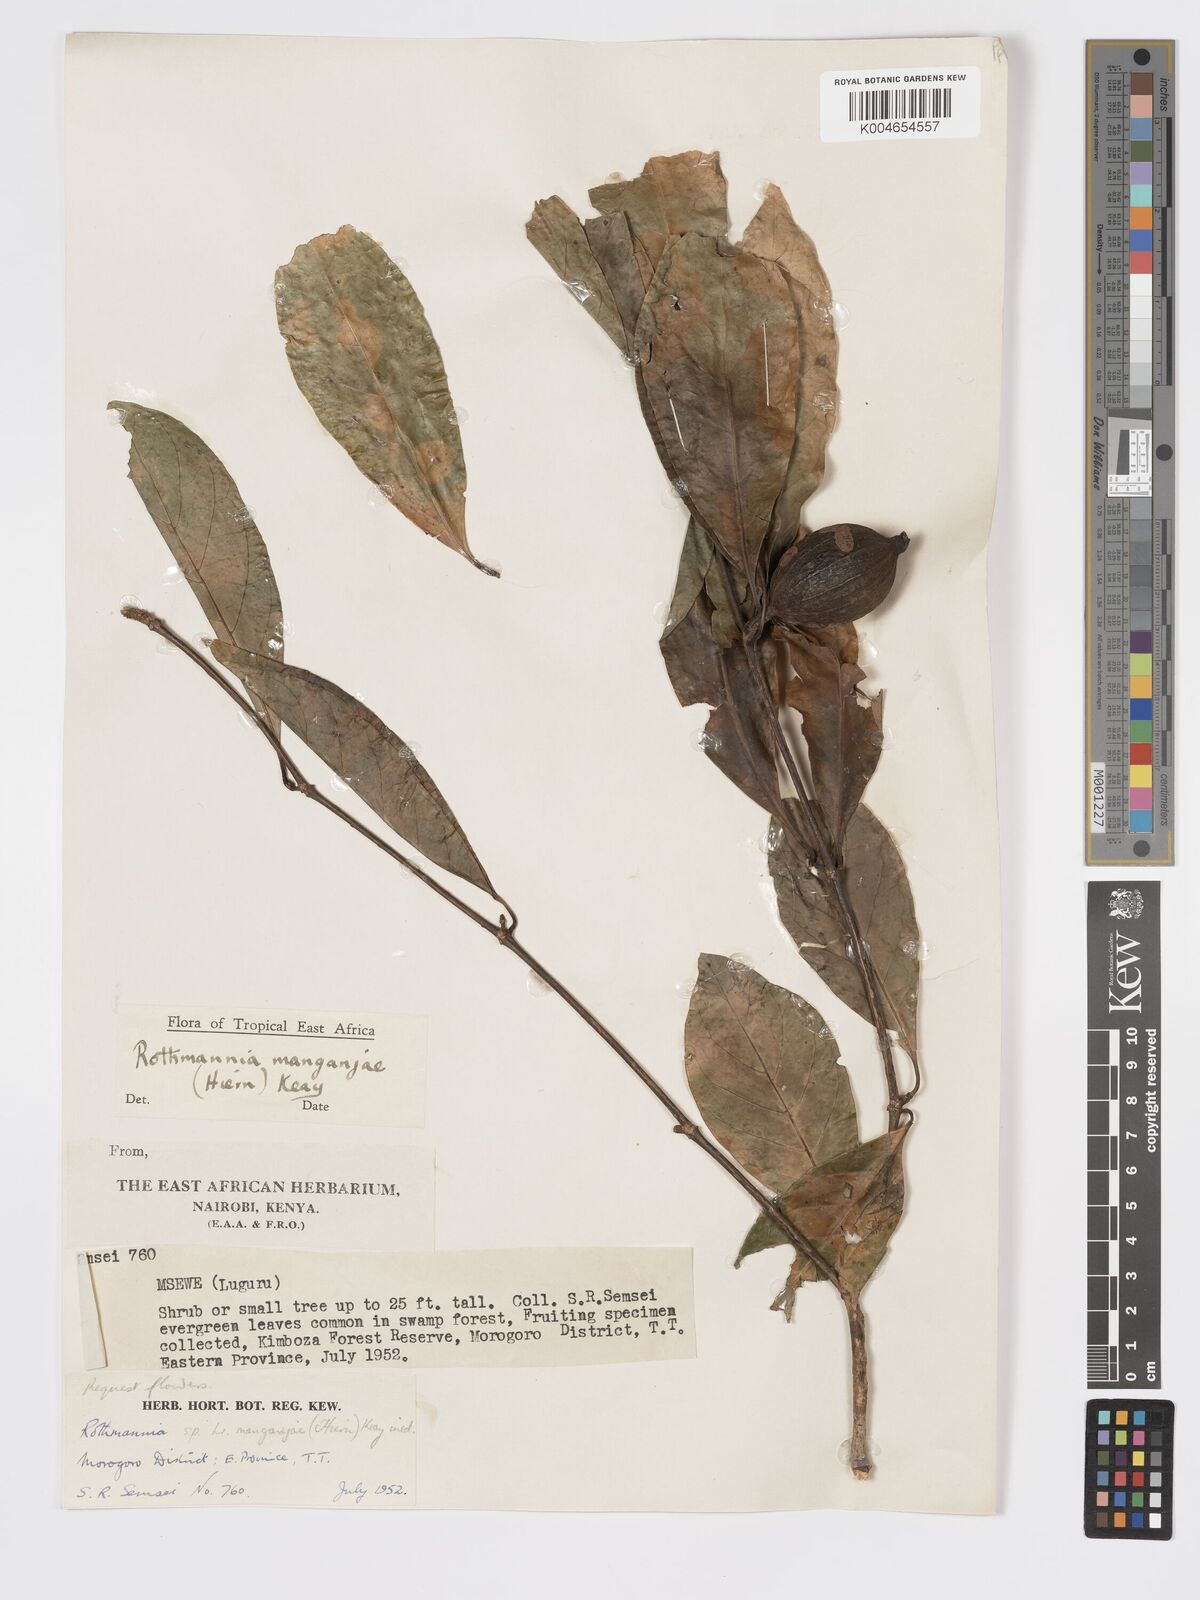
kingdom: Plantae
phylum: Tracheophyta
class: Magnoliopsida
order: Gentianales
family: Rubiaceae
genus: Rothmannia
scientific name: Rothmannia manganjae
